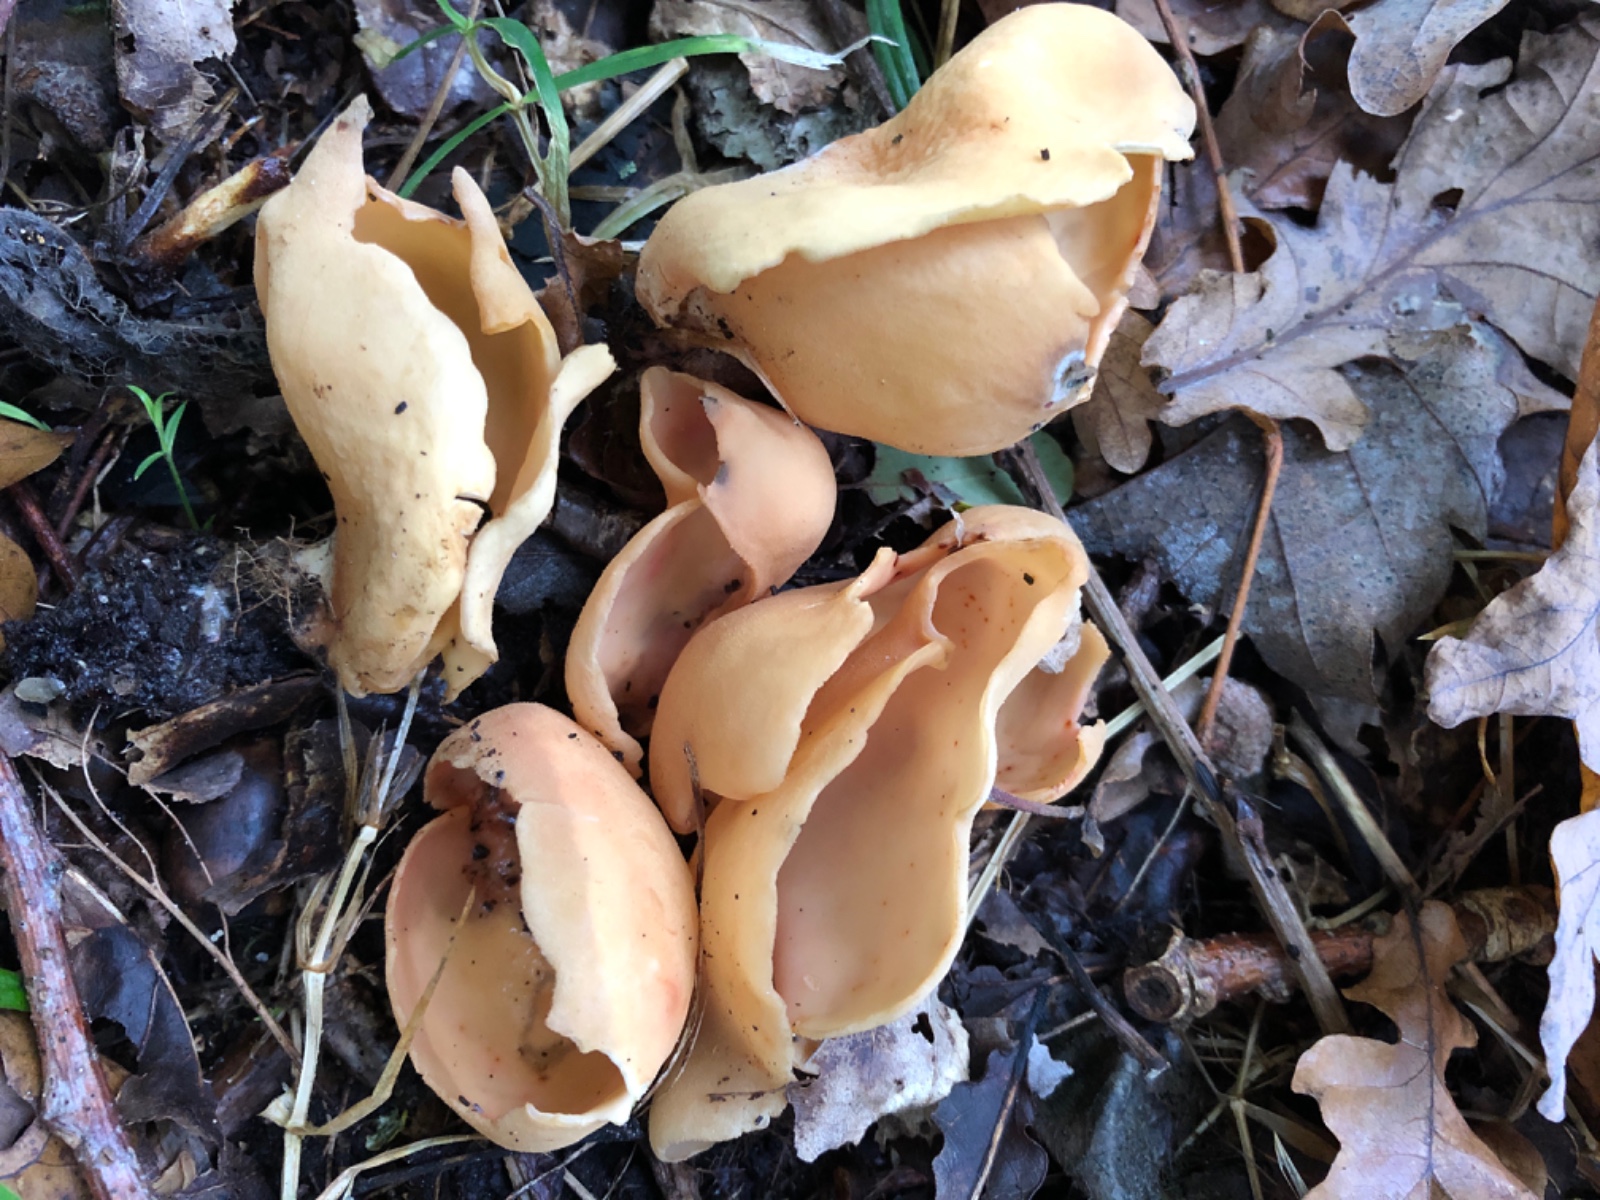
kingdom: Fungi
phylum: Ascomycota
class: Pezizomycetes
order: Pezizales
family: Otideaceae
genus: Otidea
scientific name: Otidea onotica
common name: æsel-ørebæger
